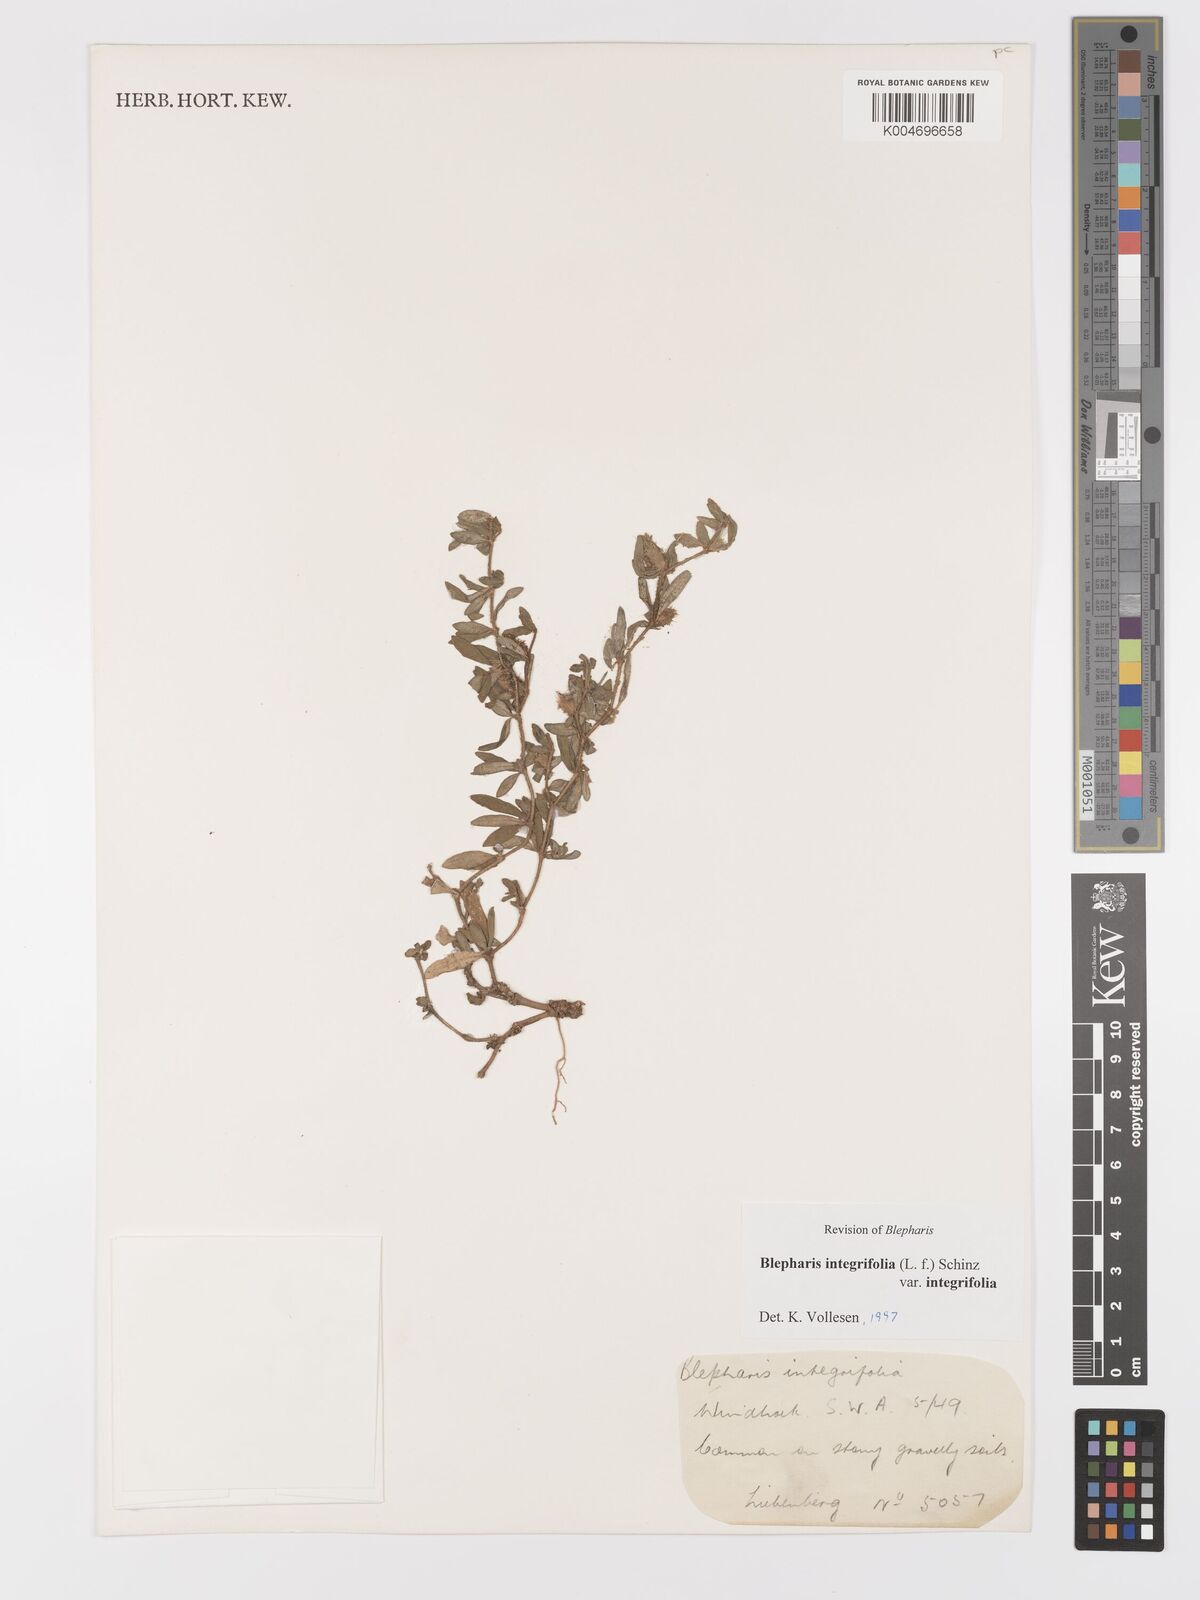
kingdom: Plantae
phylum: Tracheophyta
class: Magnoliopsida
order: Lamiales
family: Acanthaceae
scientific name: Acanthaceae
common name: Acanthaceae
